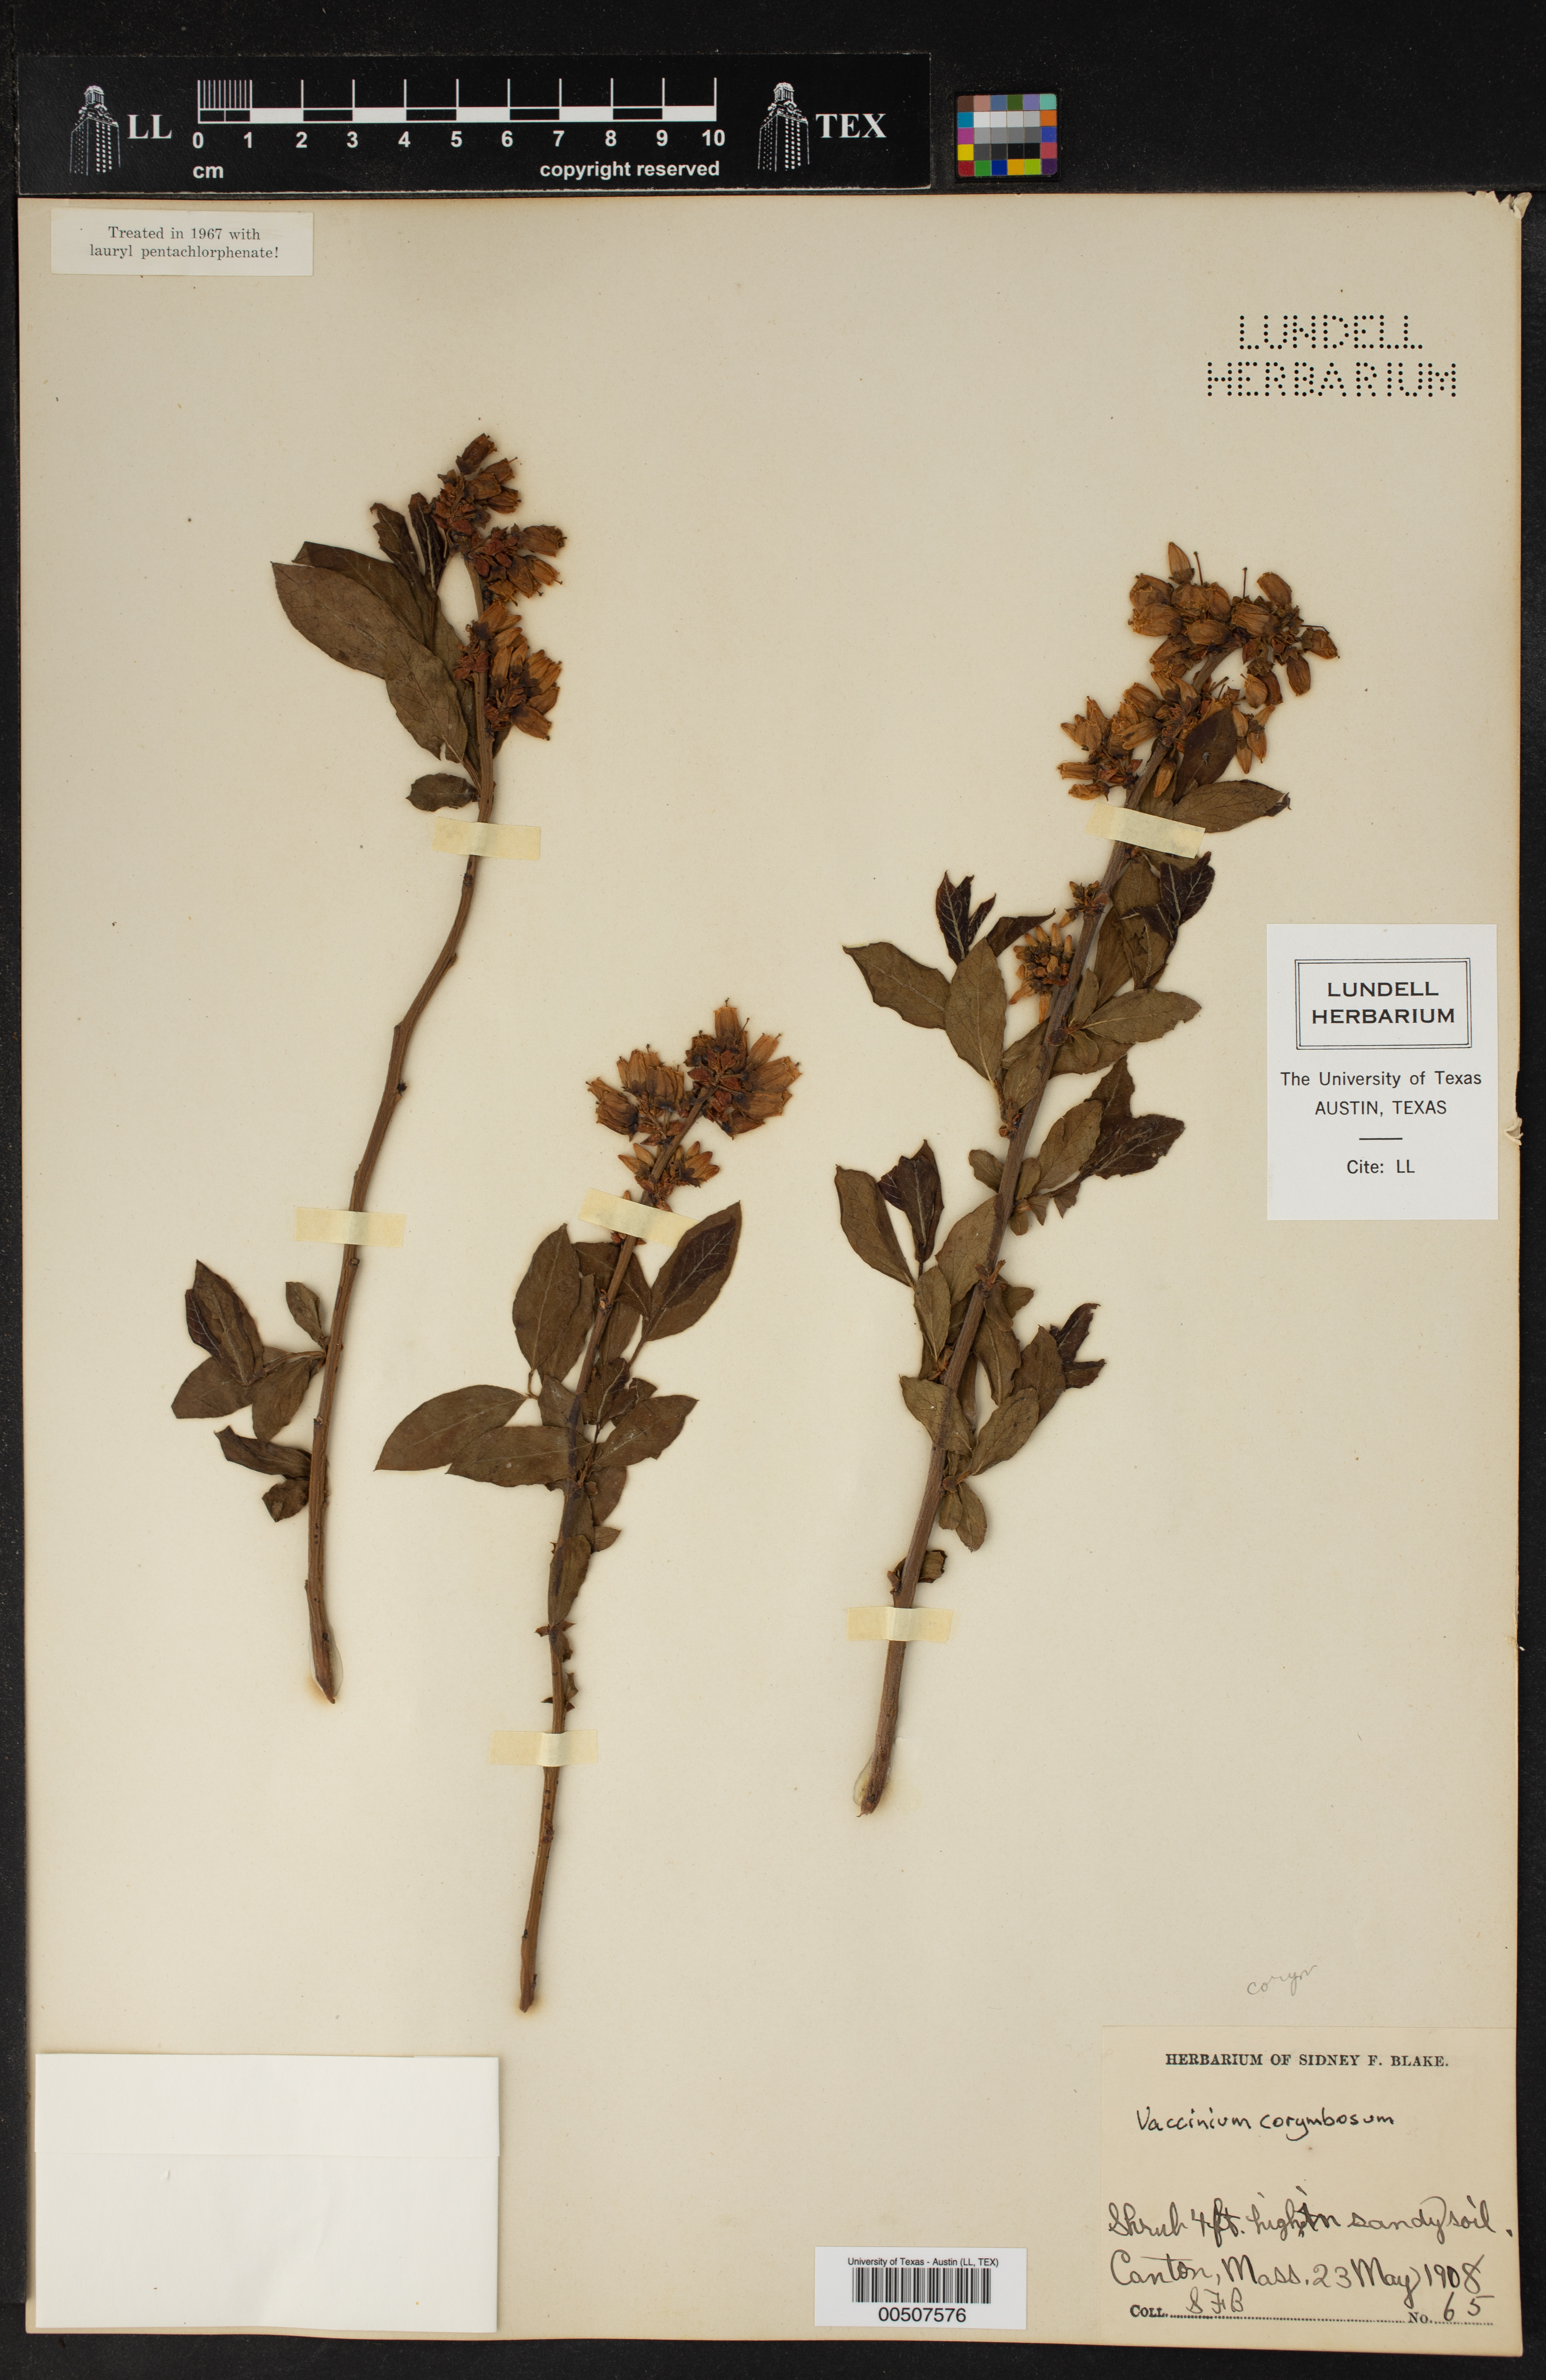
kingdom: Plantae
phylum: Tracheophyta
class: Magnoliopsida
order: Ericales
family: Ericaceae
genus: Vaccinium
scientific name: Vaccinium corymbosum
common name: Blueberry
